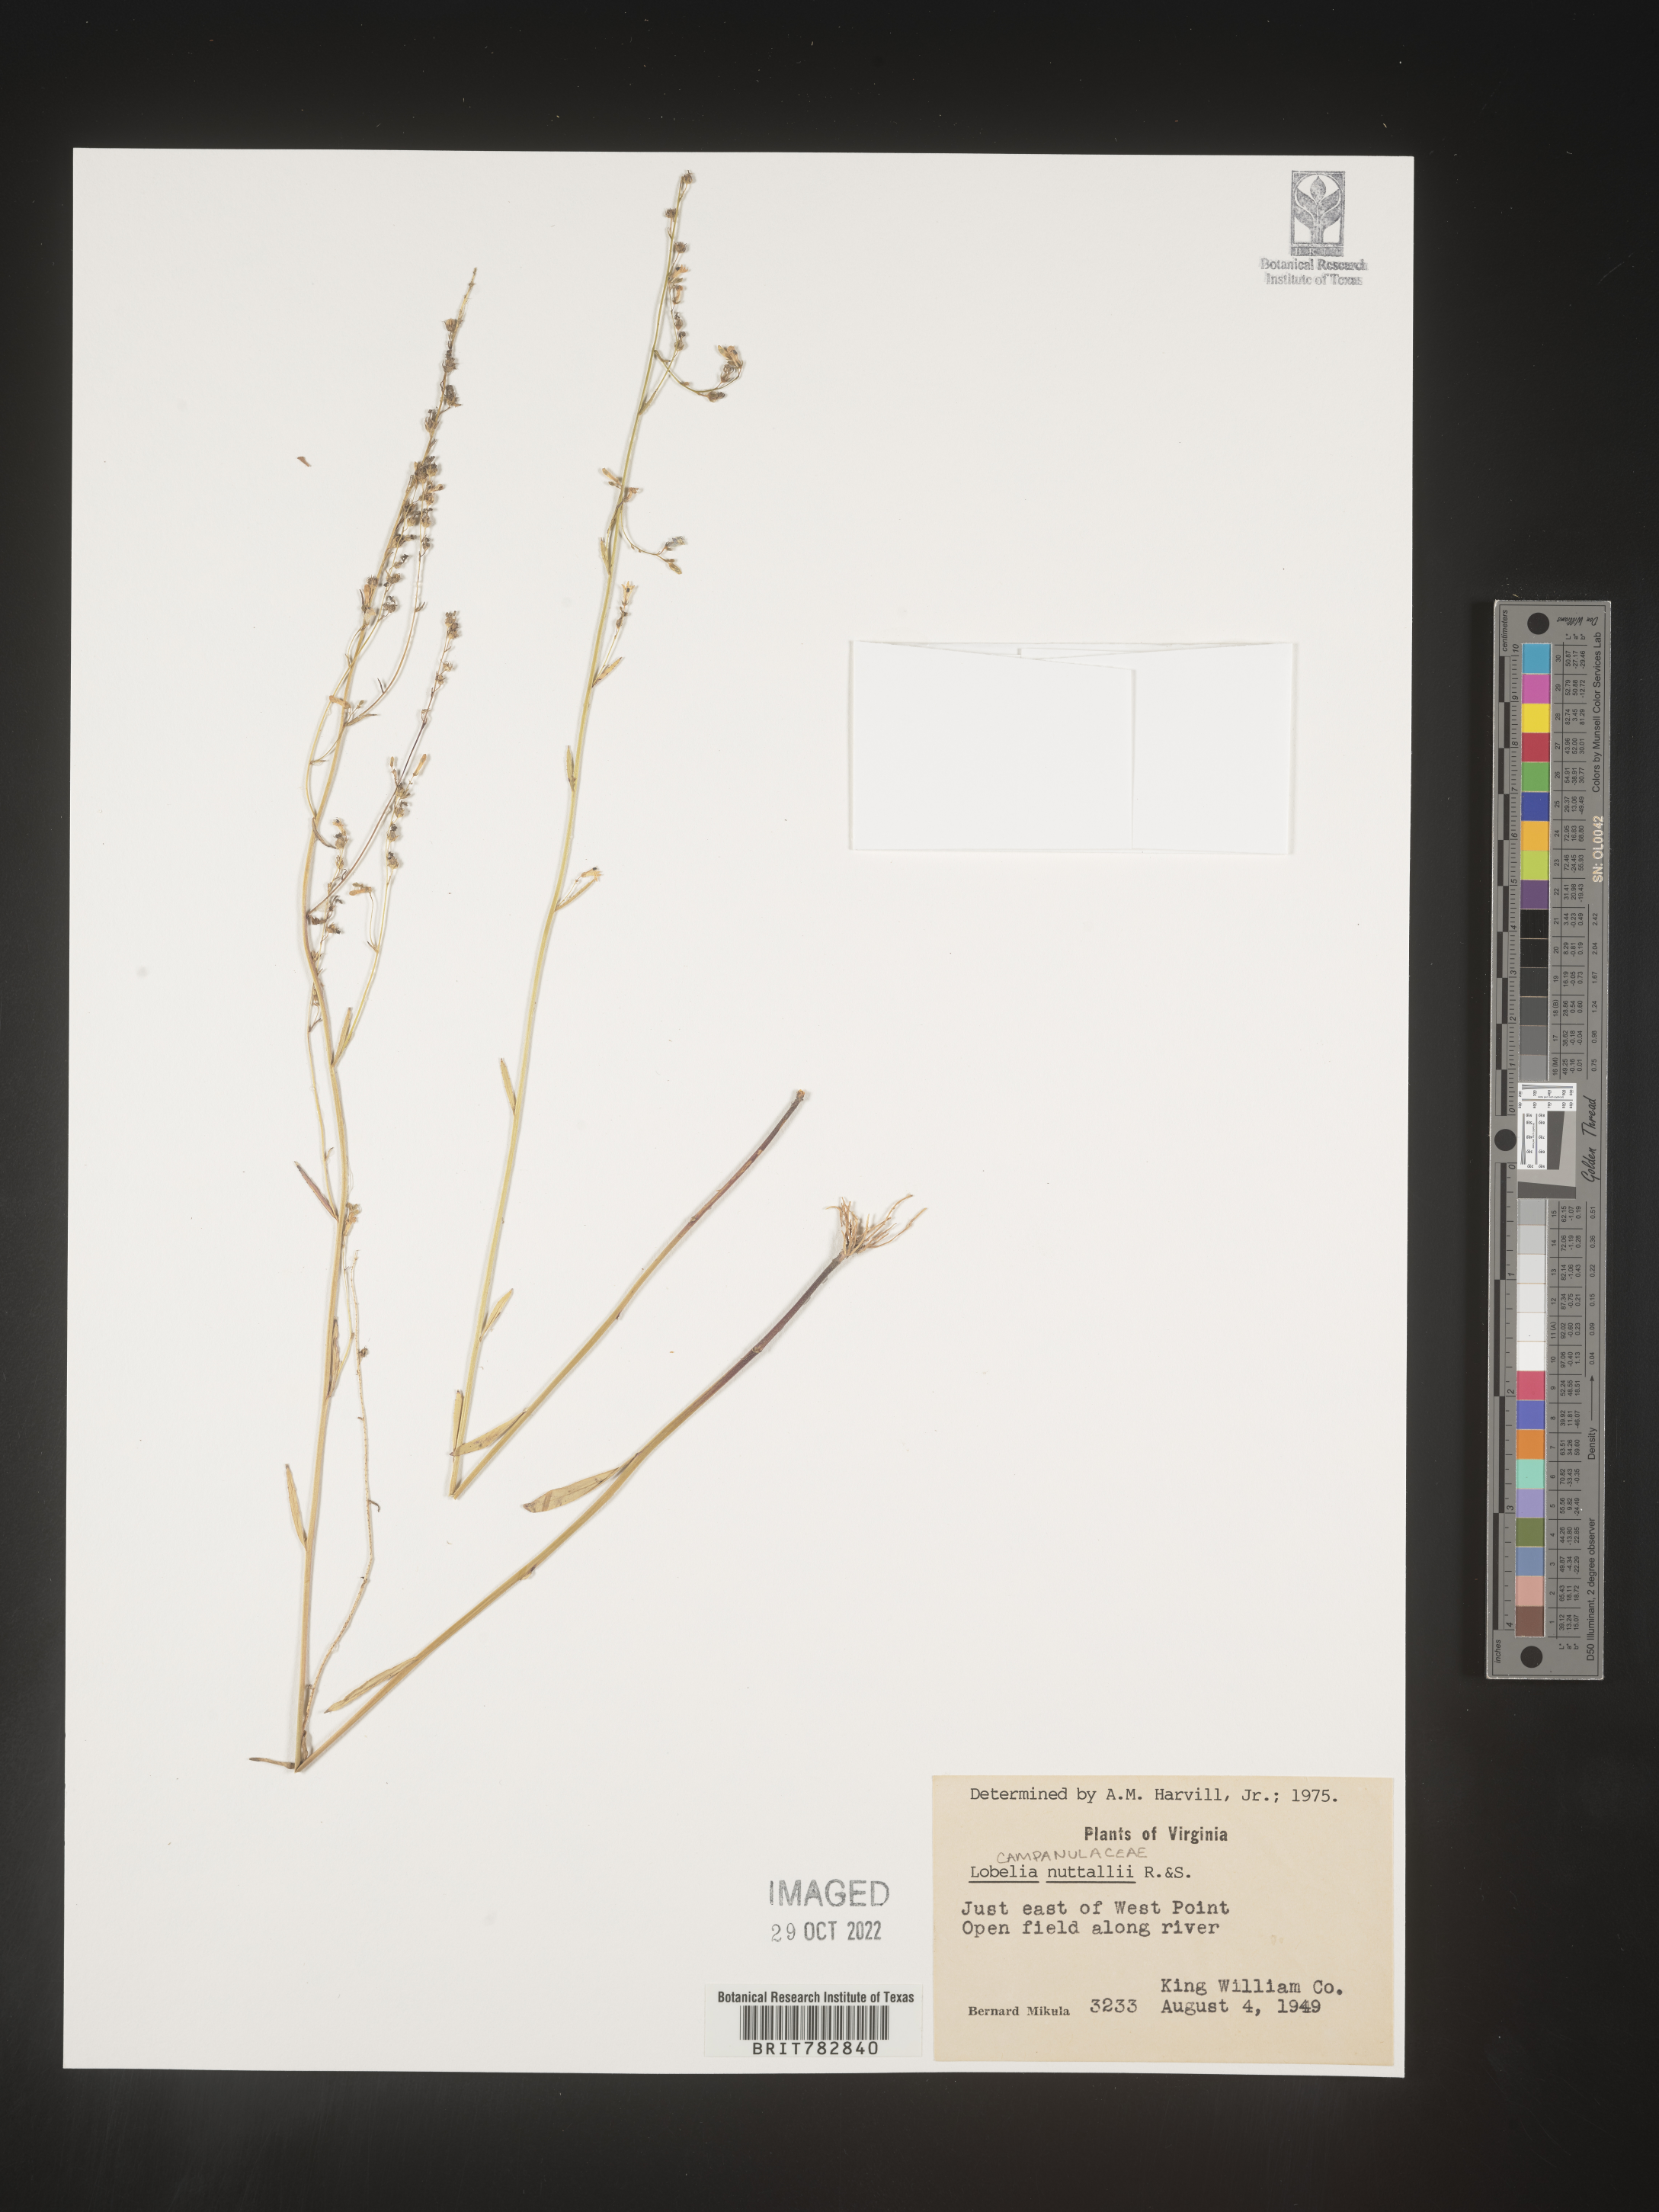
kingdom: Plantae
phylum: Tracheophyta
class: Magnoliopsida
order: Asterales
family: Campanulaceae
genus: Lobelia
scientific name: Lobelia nuttallii
